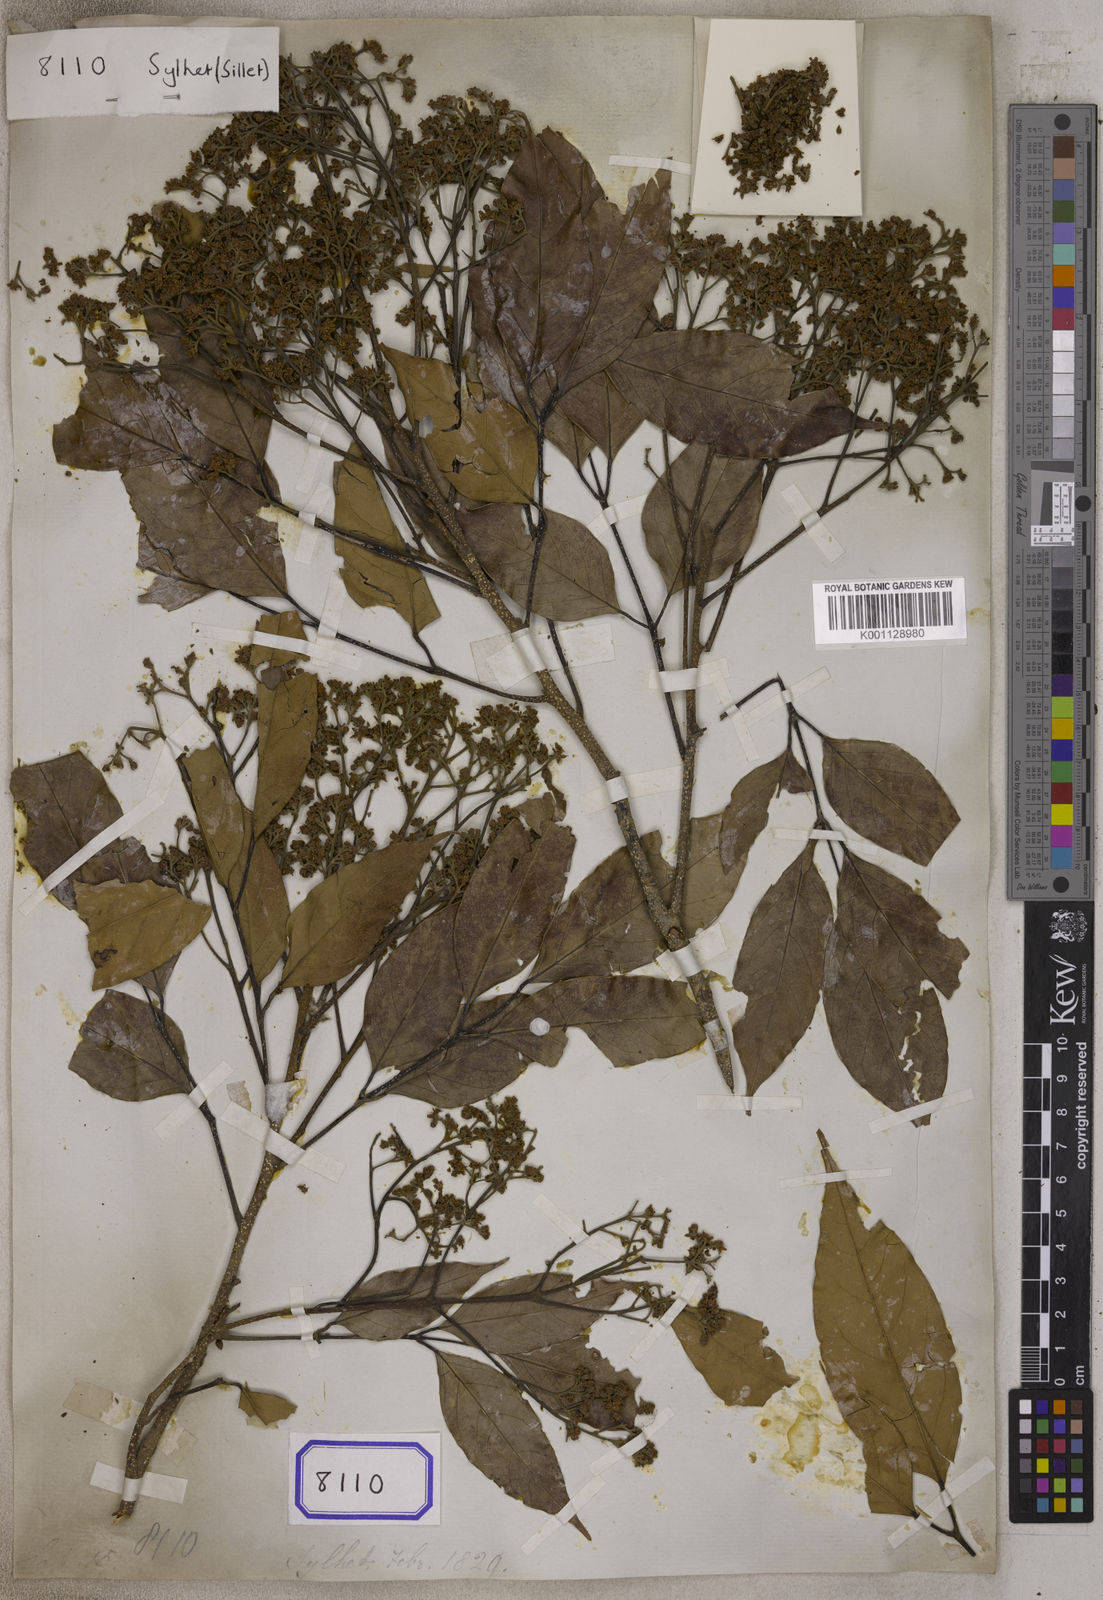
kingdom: Plantae
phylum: Tracheophyta
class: Magnoliopsida
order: Sapindales
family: Sapindaceae
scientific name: Sapindaceae
